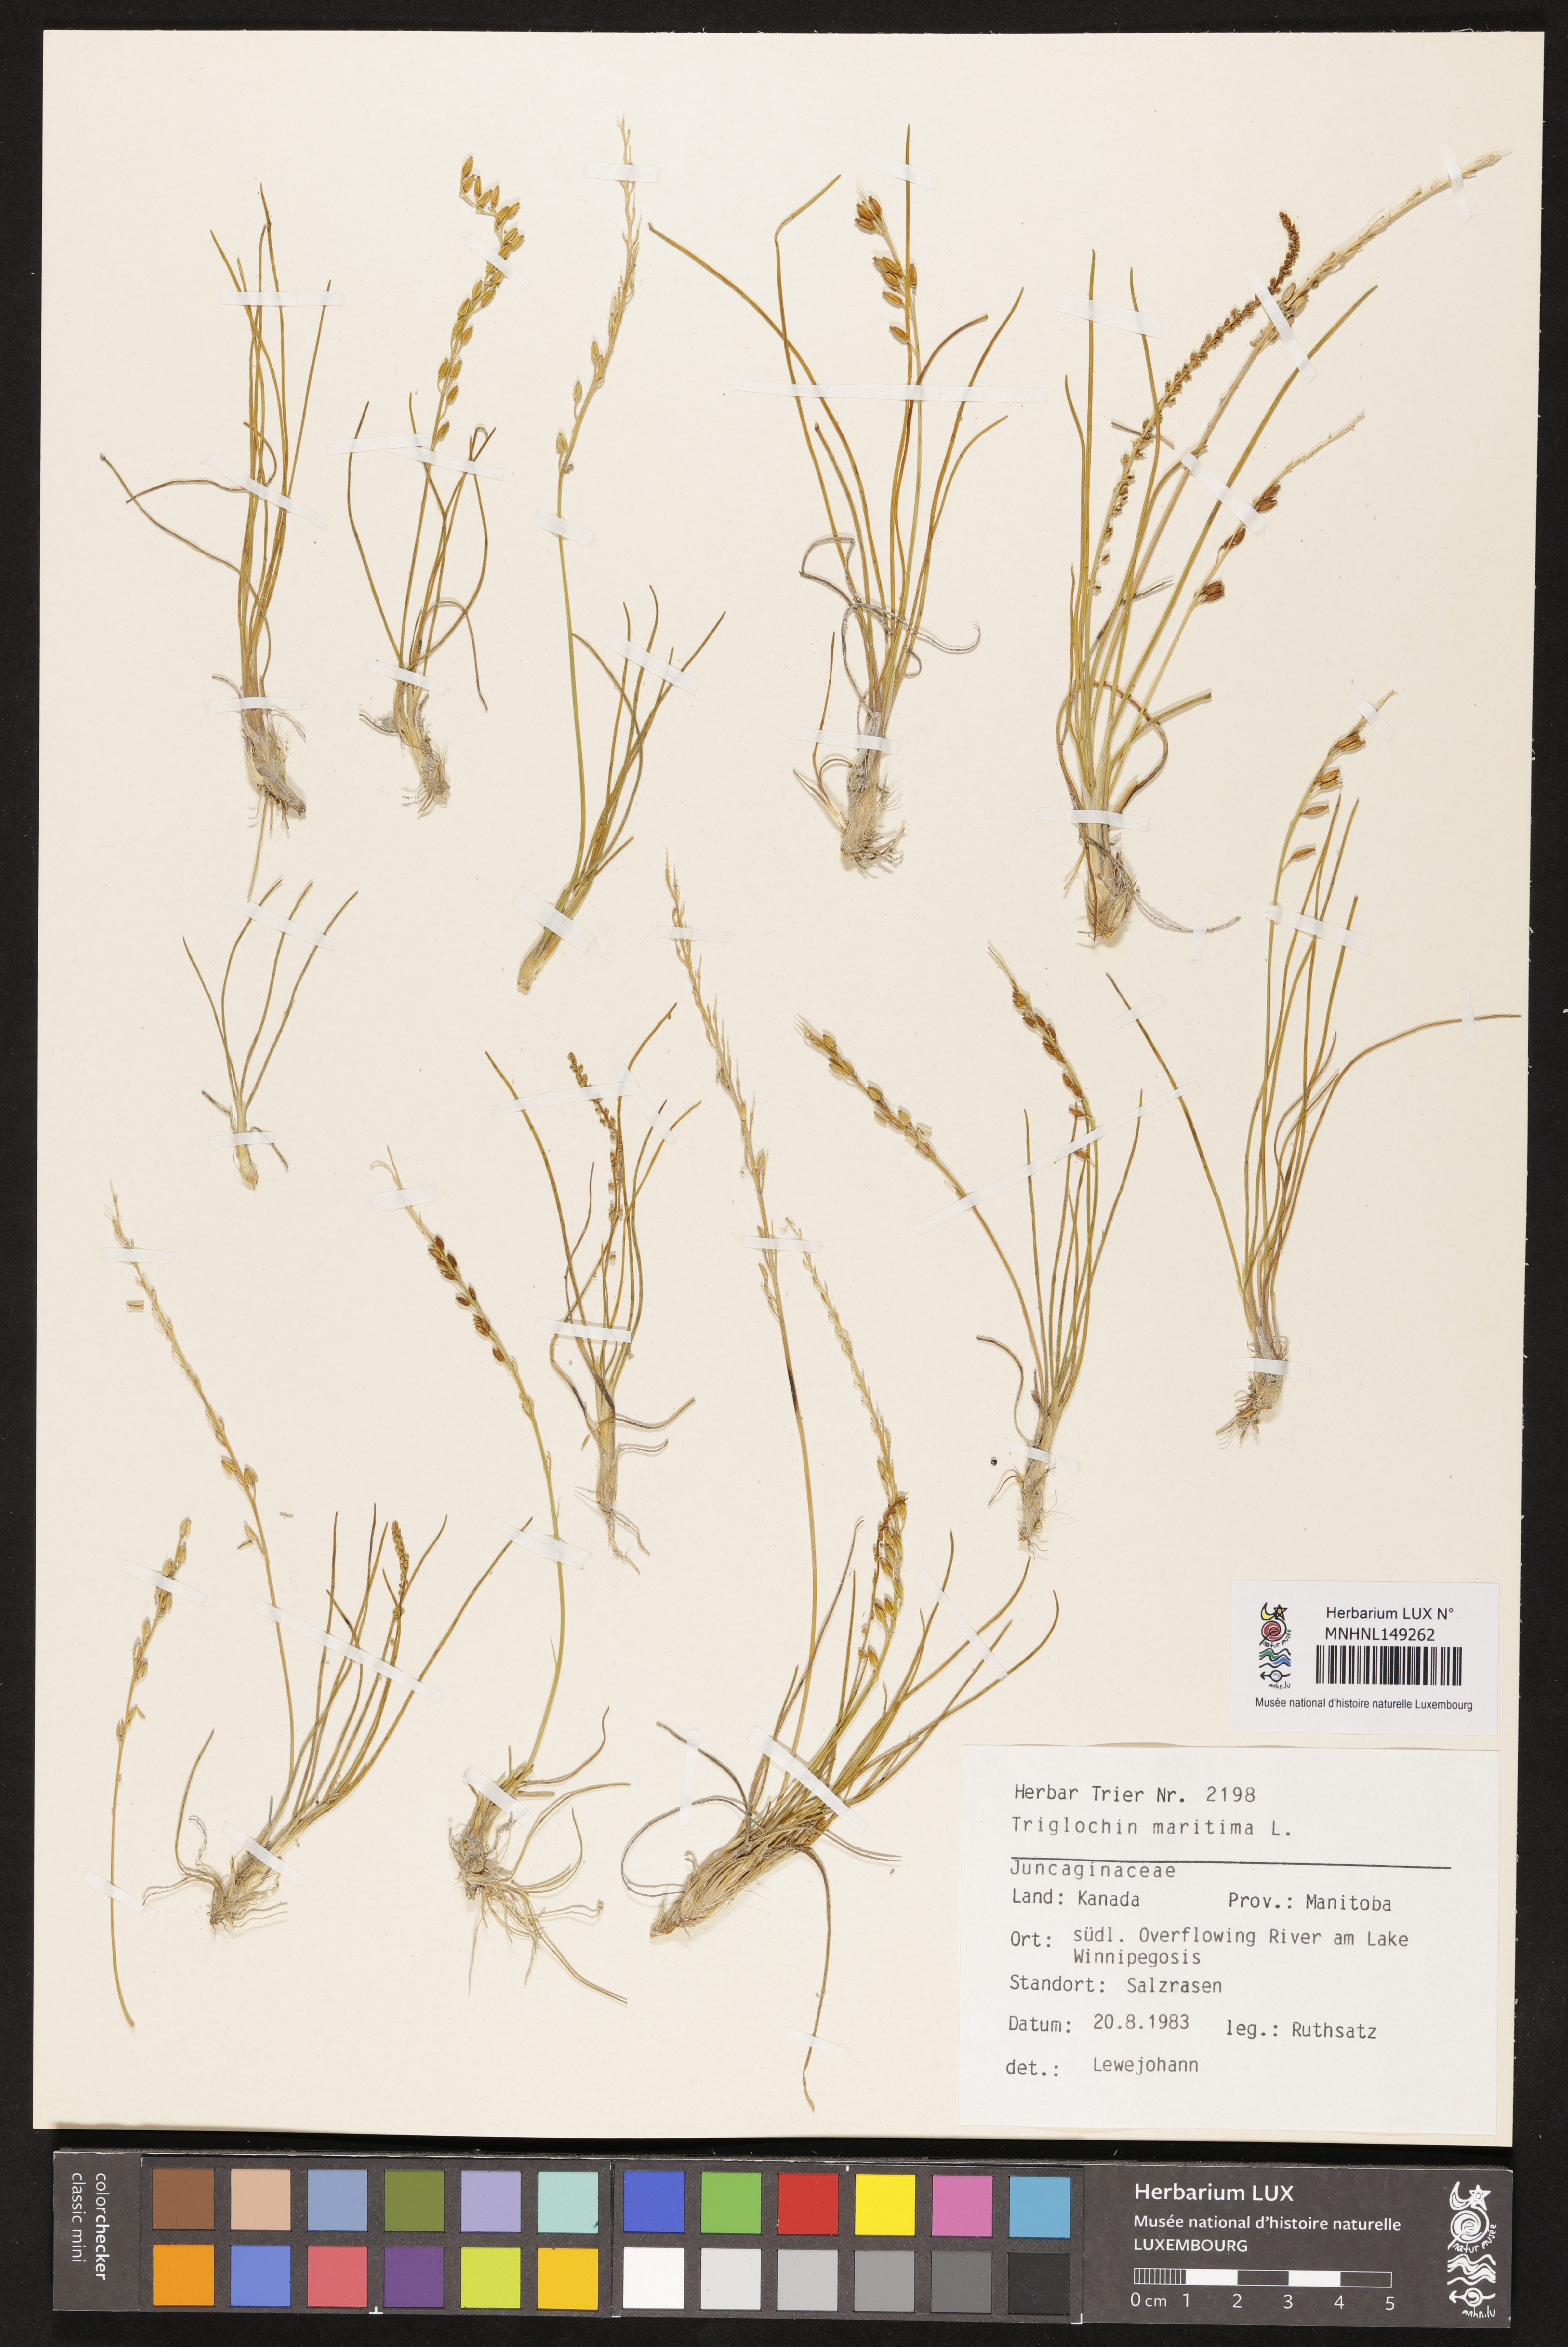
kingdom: Plantae
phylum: Tracheophyta
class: Liliopsida
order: Alismatales
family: Juncaginaceae
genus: Triglochin
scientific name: Triglochin maritima
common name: Sea arrowgrass
